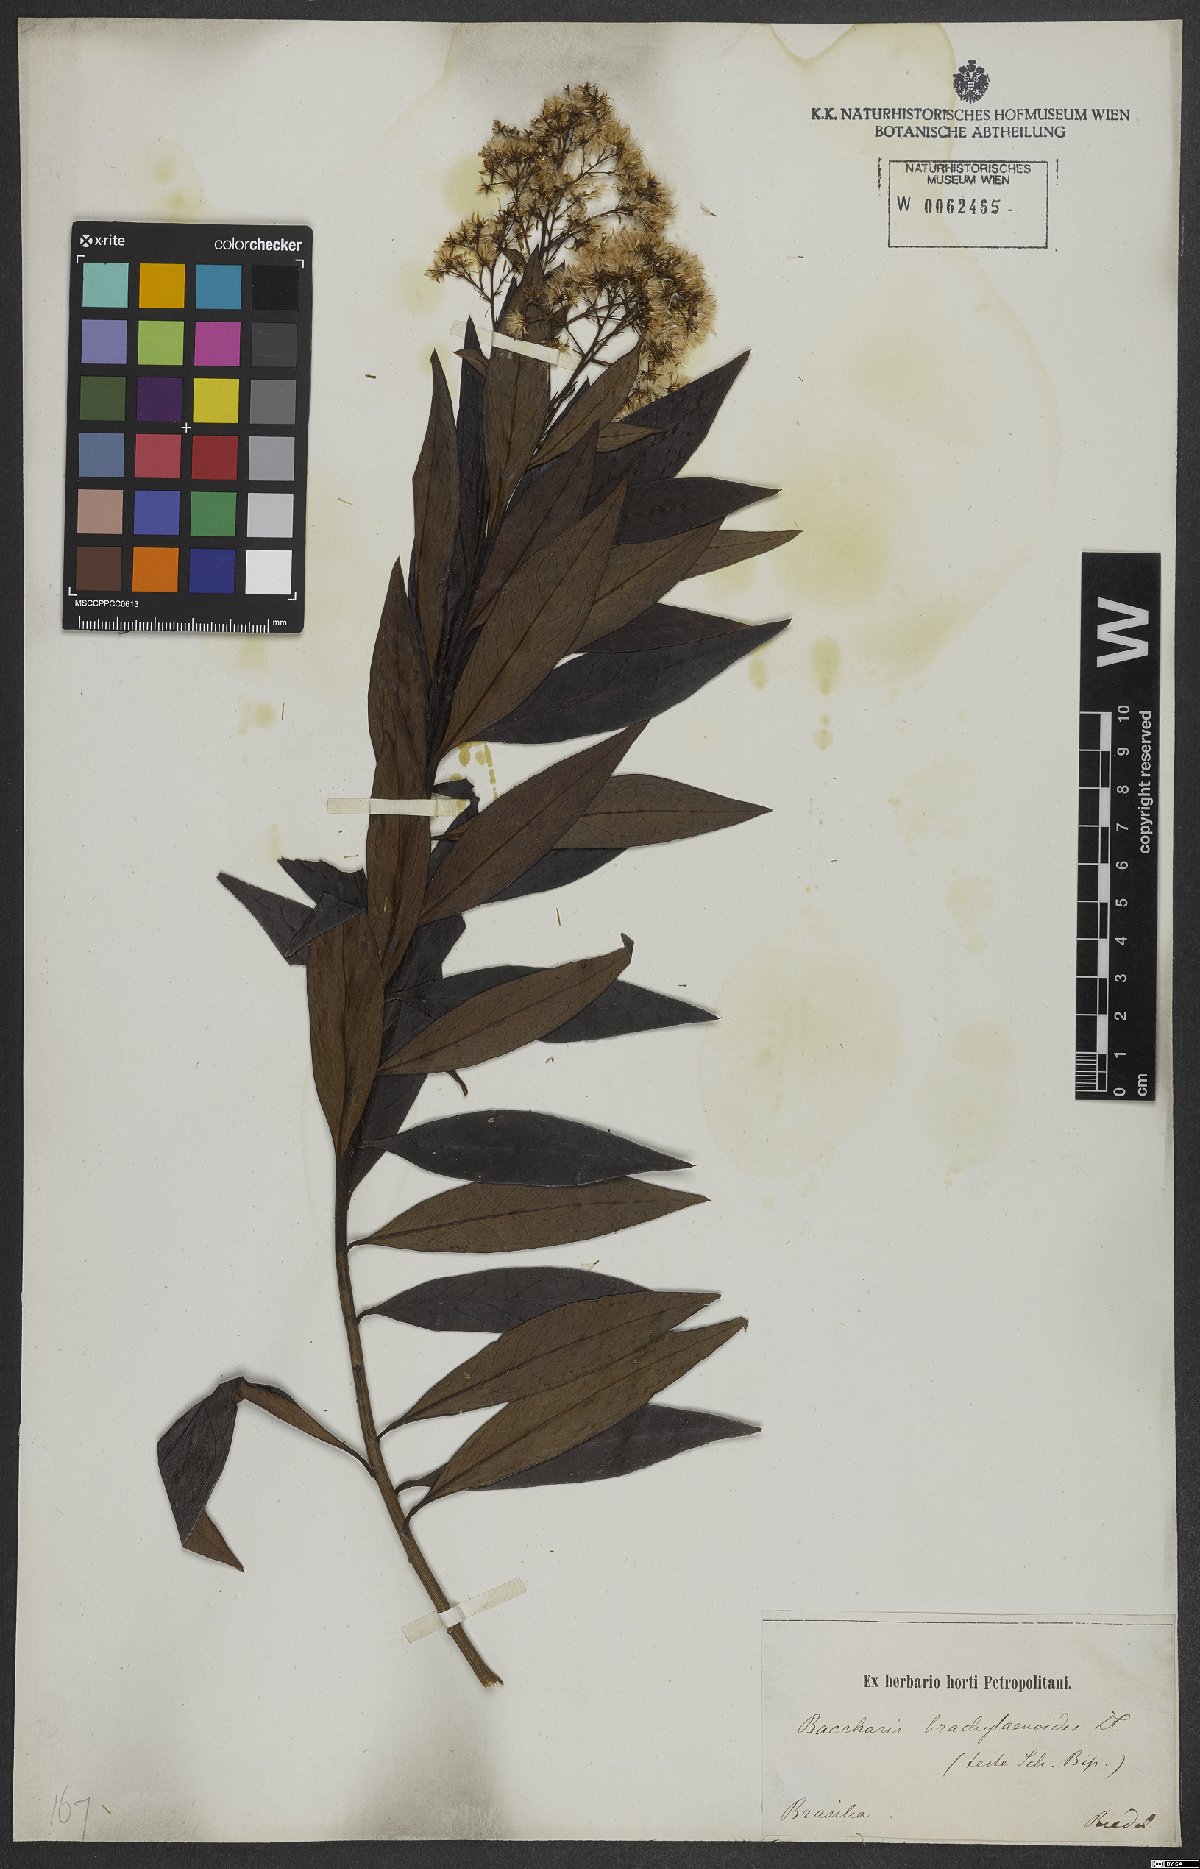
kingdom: Plantae
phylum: Tracheophyta
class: Magnoliopsida
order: Asterales
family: Asteraceae
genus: Baccharis
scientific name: Baccharis oblongifolia
